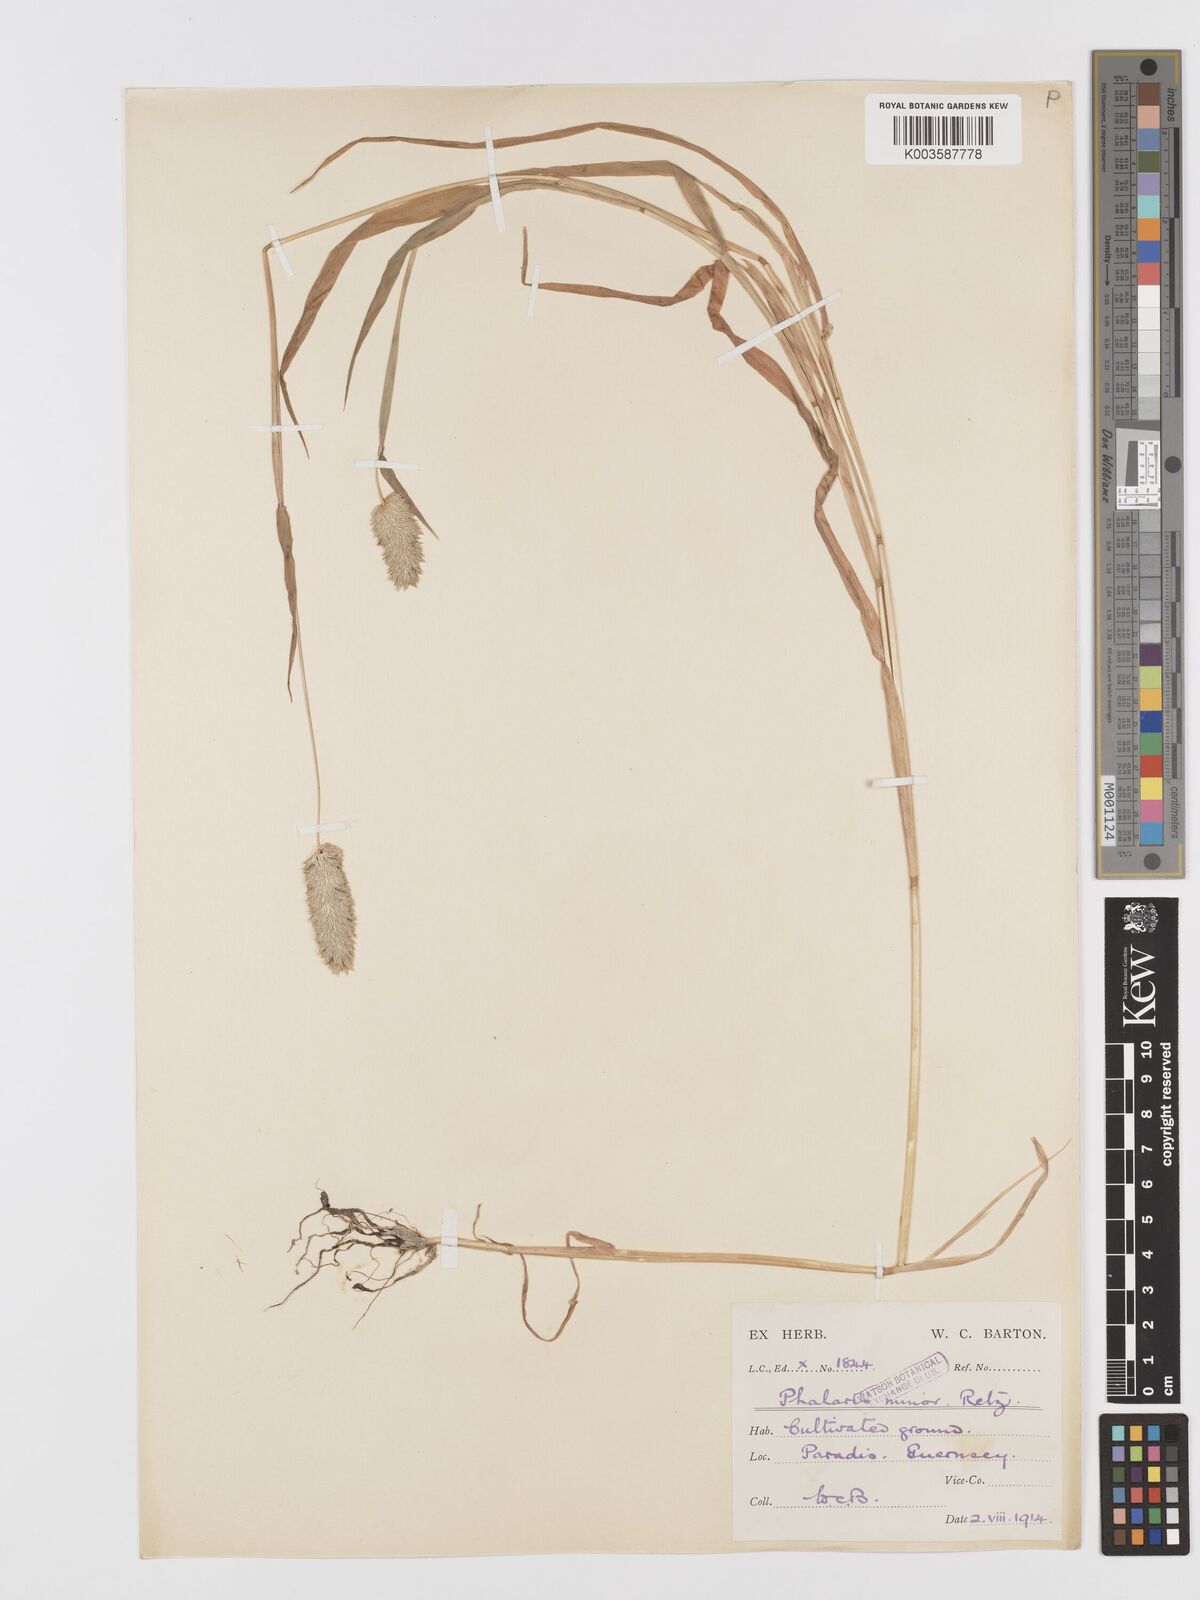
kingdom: Plantae
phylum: Tracheophyta
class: Liliopsida
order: Poales
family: Poaceae
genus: Phalaris
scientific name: Phalaris minor
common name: Littleseed canarygrass
